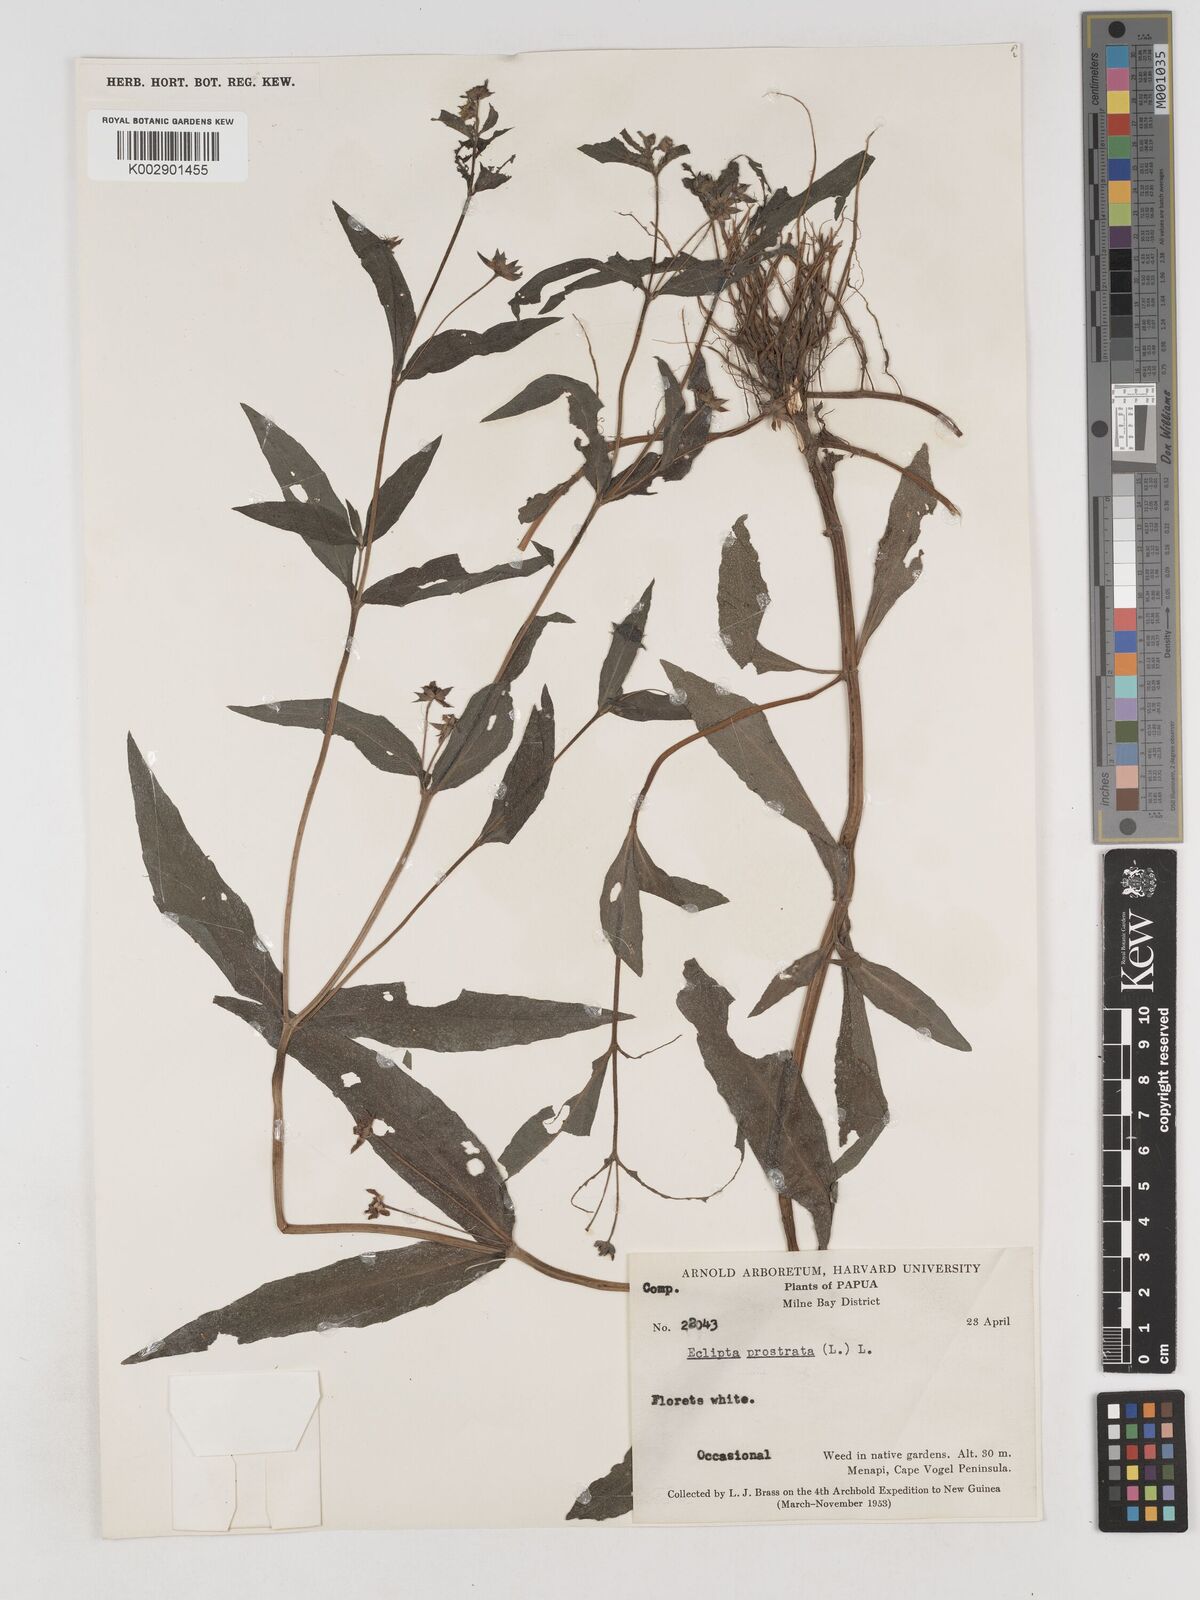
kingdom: Plantae
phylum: Tracheophyta
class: Magnoliopsida
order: Asterales
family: Asteraceae
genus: Eclipta
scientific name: Eclipta prostrata
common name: False daisy
